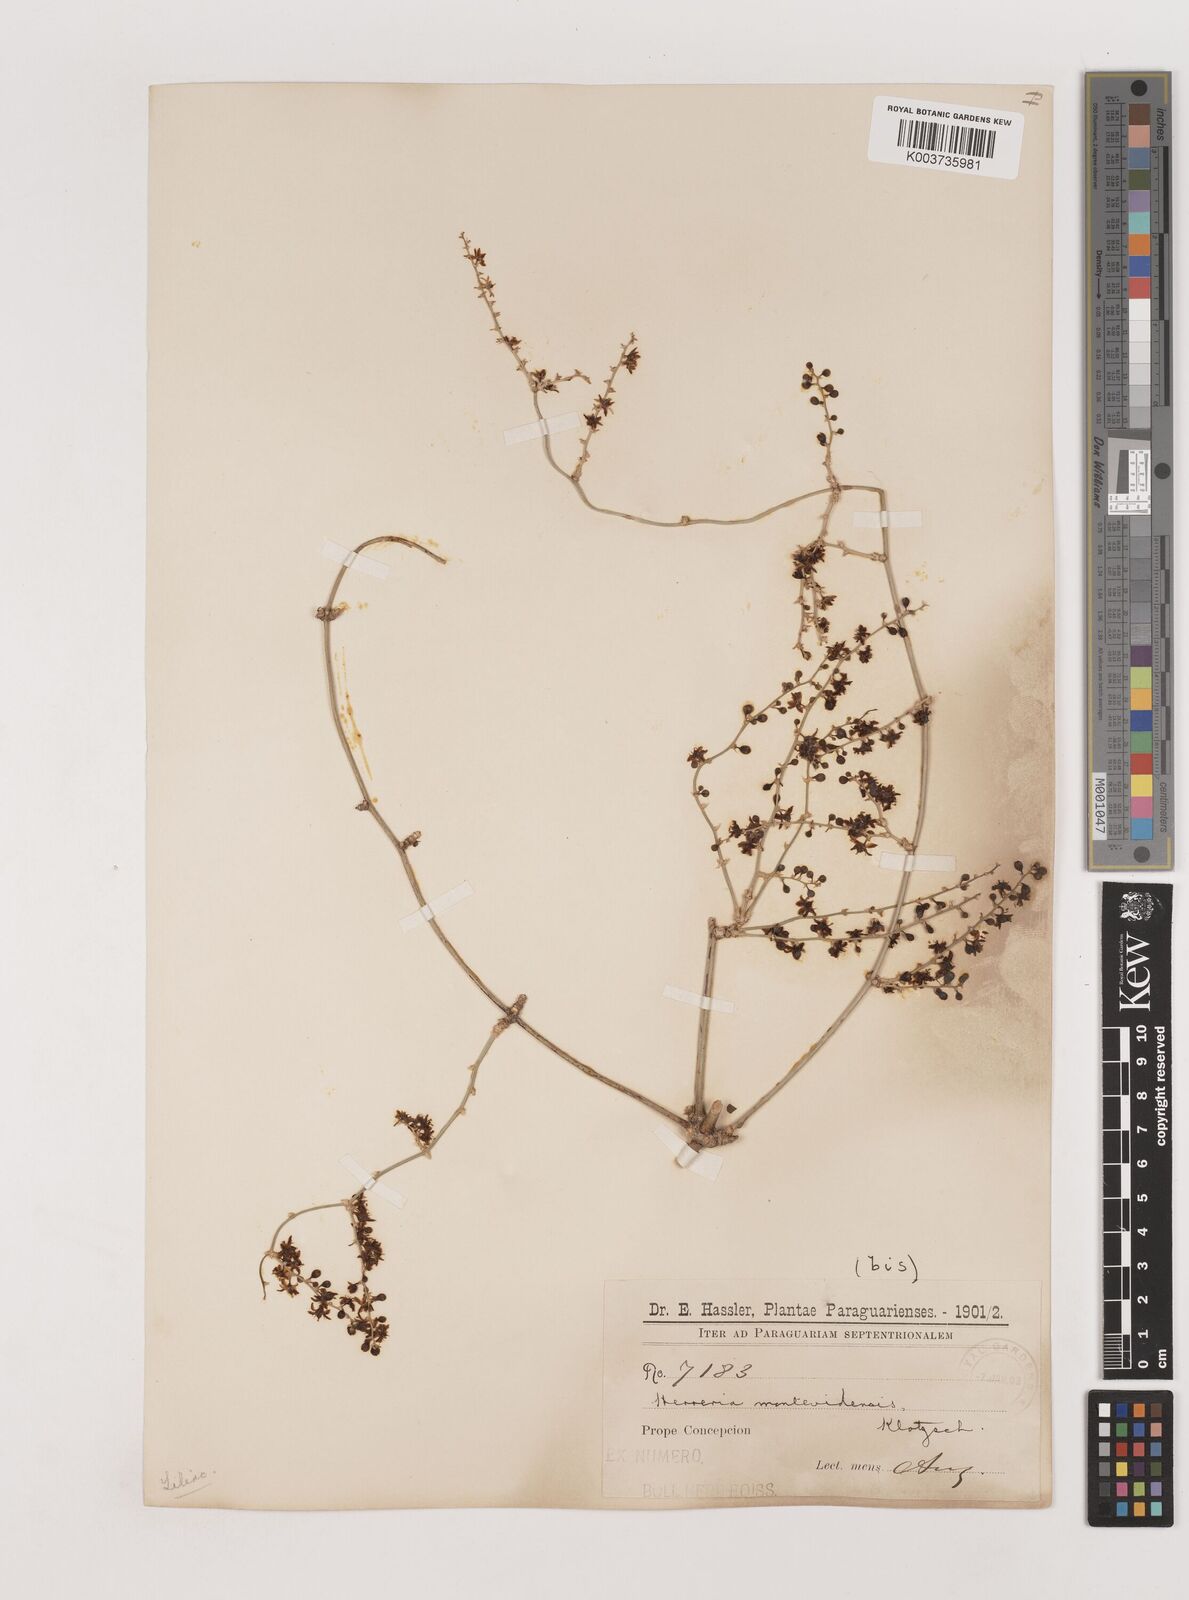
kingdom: Plantae
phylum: Tracheophyta
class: Liliopsida
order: Asparagales
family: Asparagaceae
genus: Herreria
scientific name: Herreria montevidensis
